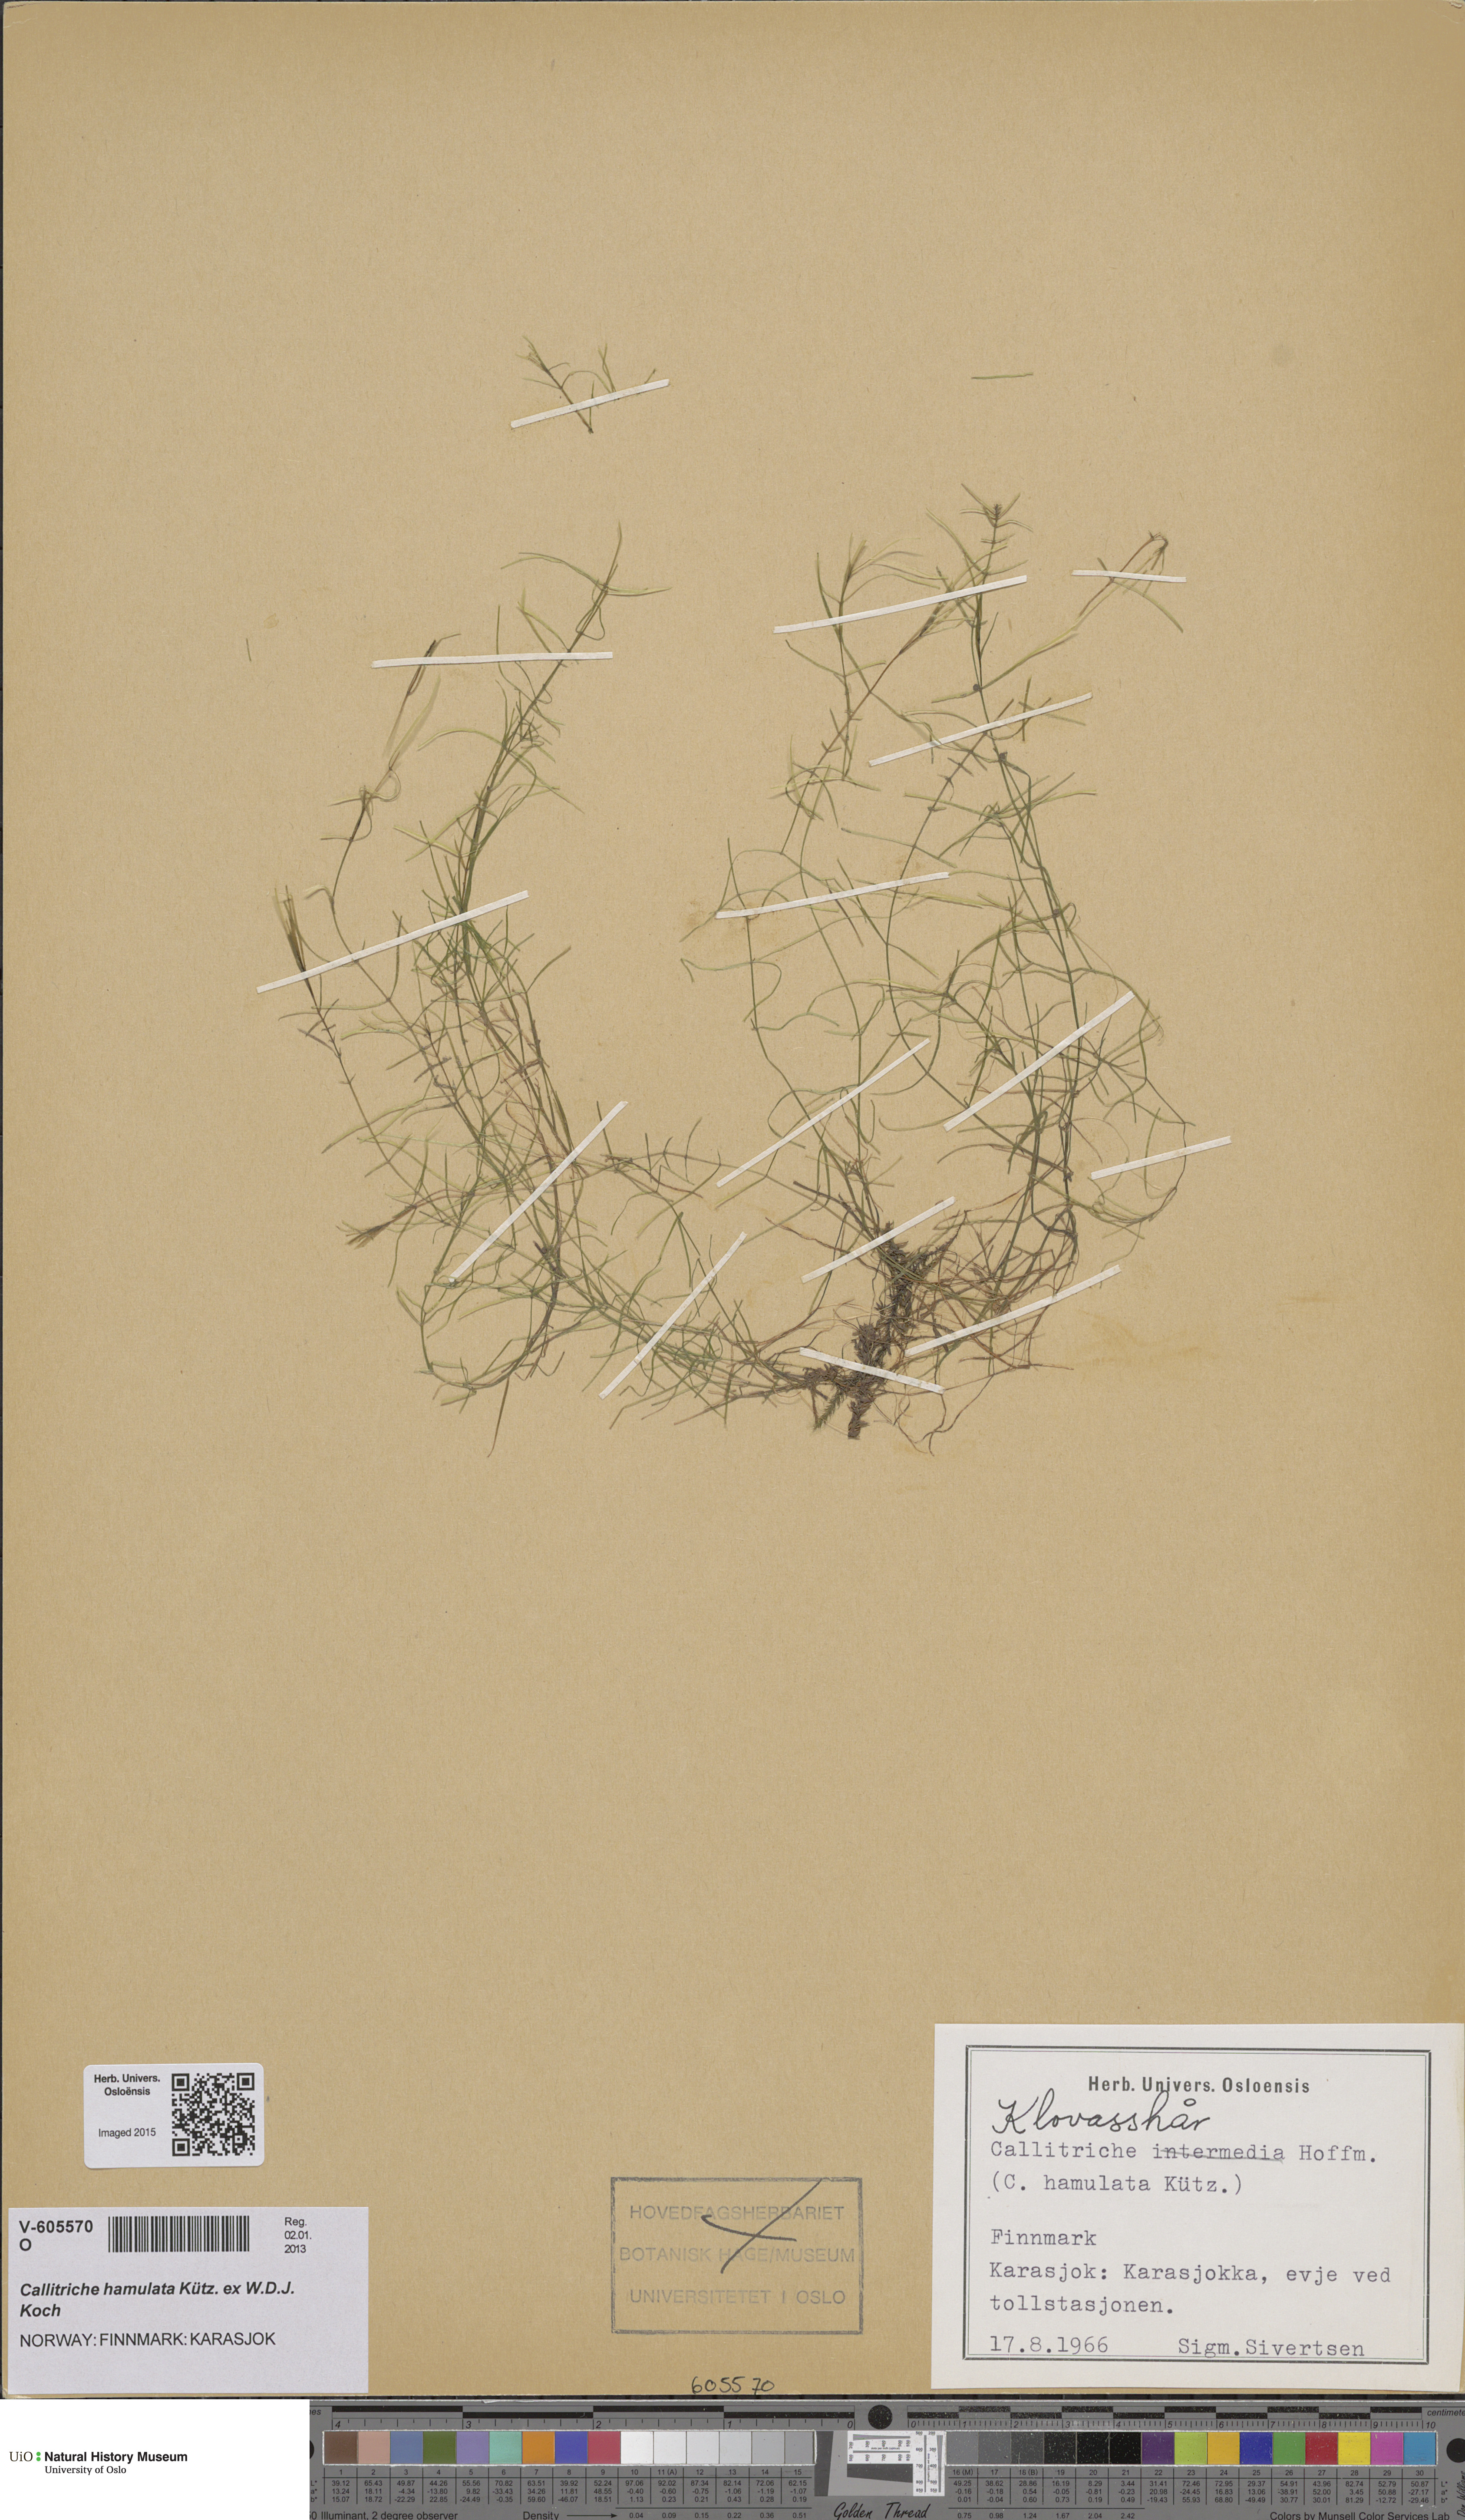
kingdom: Plantae
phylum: Tracheophyta
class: Magnoliopsida
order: Lamiales
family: Plantaginaceae
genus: Callitriche
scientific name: Callitriche hamulata
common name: Intermediate water-starwort
